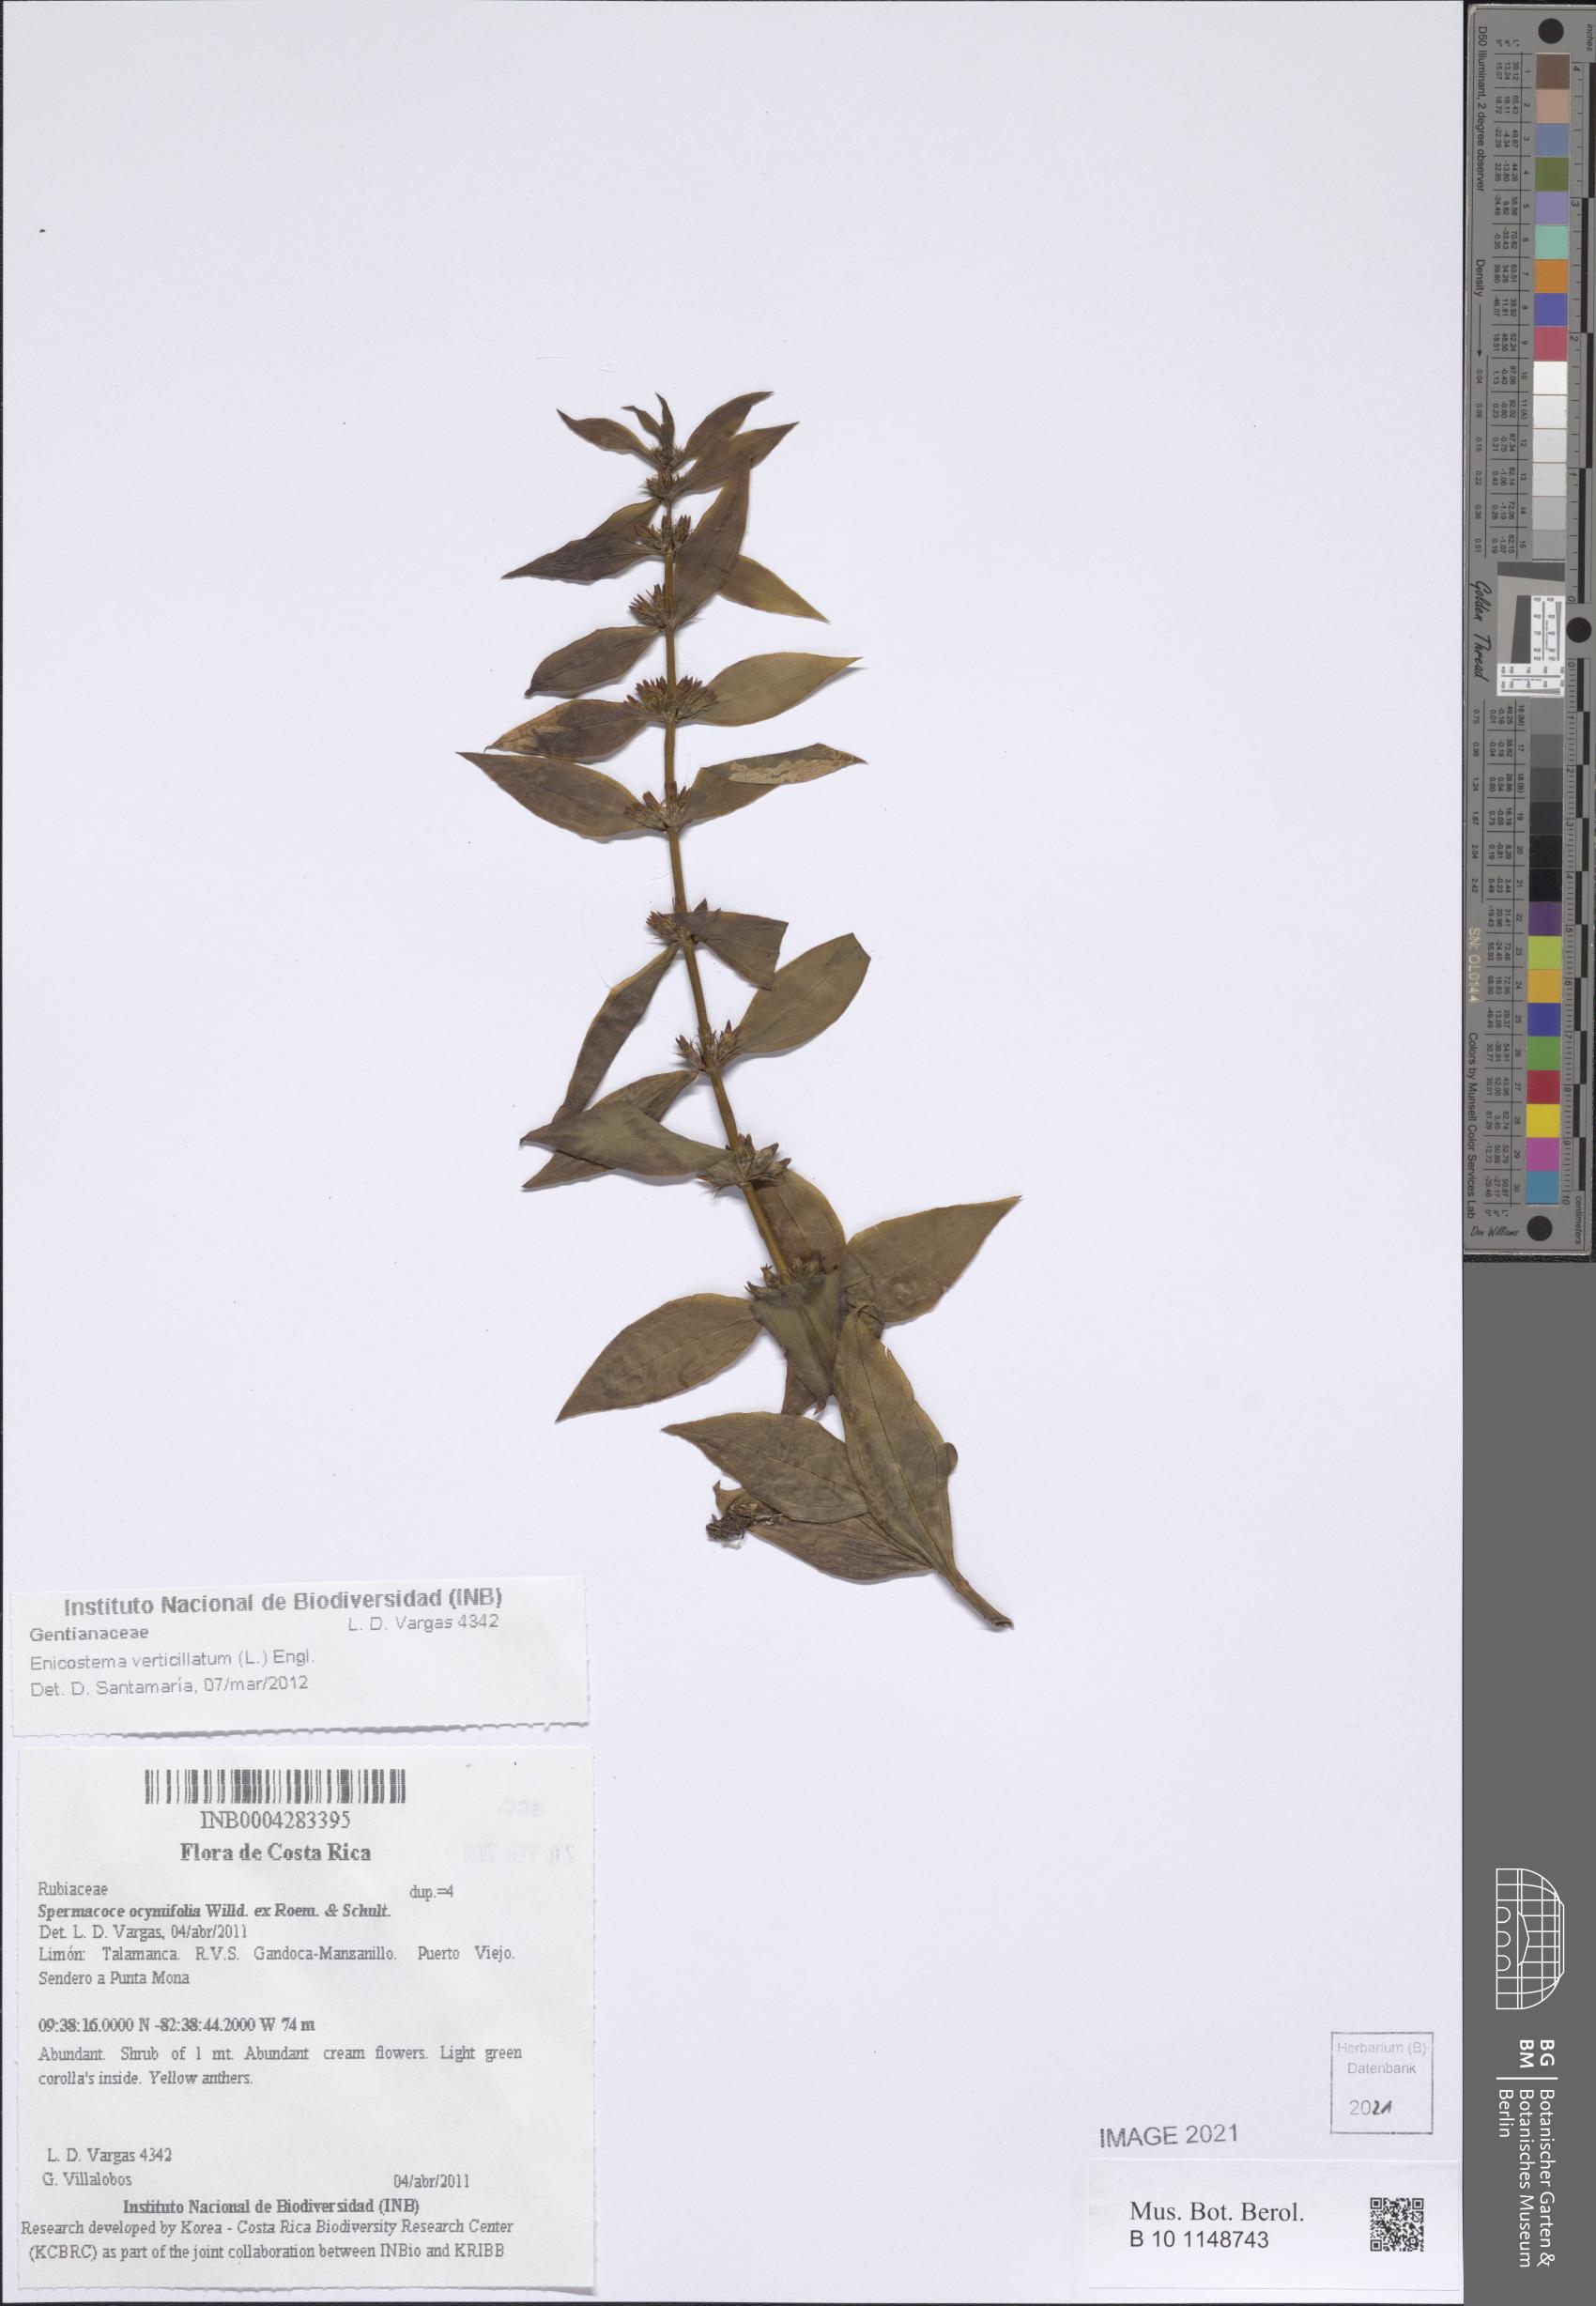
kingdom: Plantae
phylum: Tracheophyta
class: Magnoliopsida
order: Gentianales
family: Gentianaceae
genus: Enicostema
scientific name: Enicostema verticillatum
